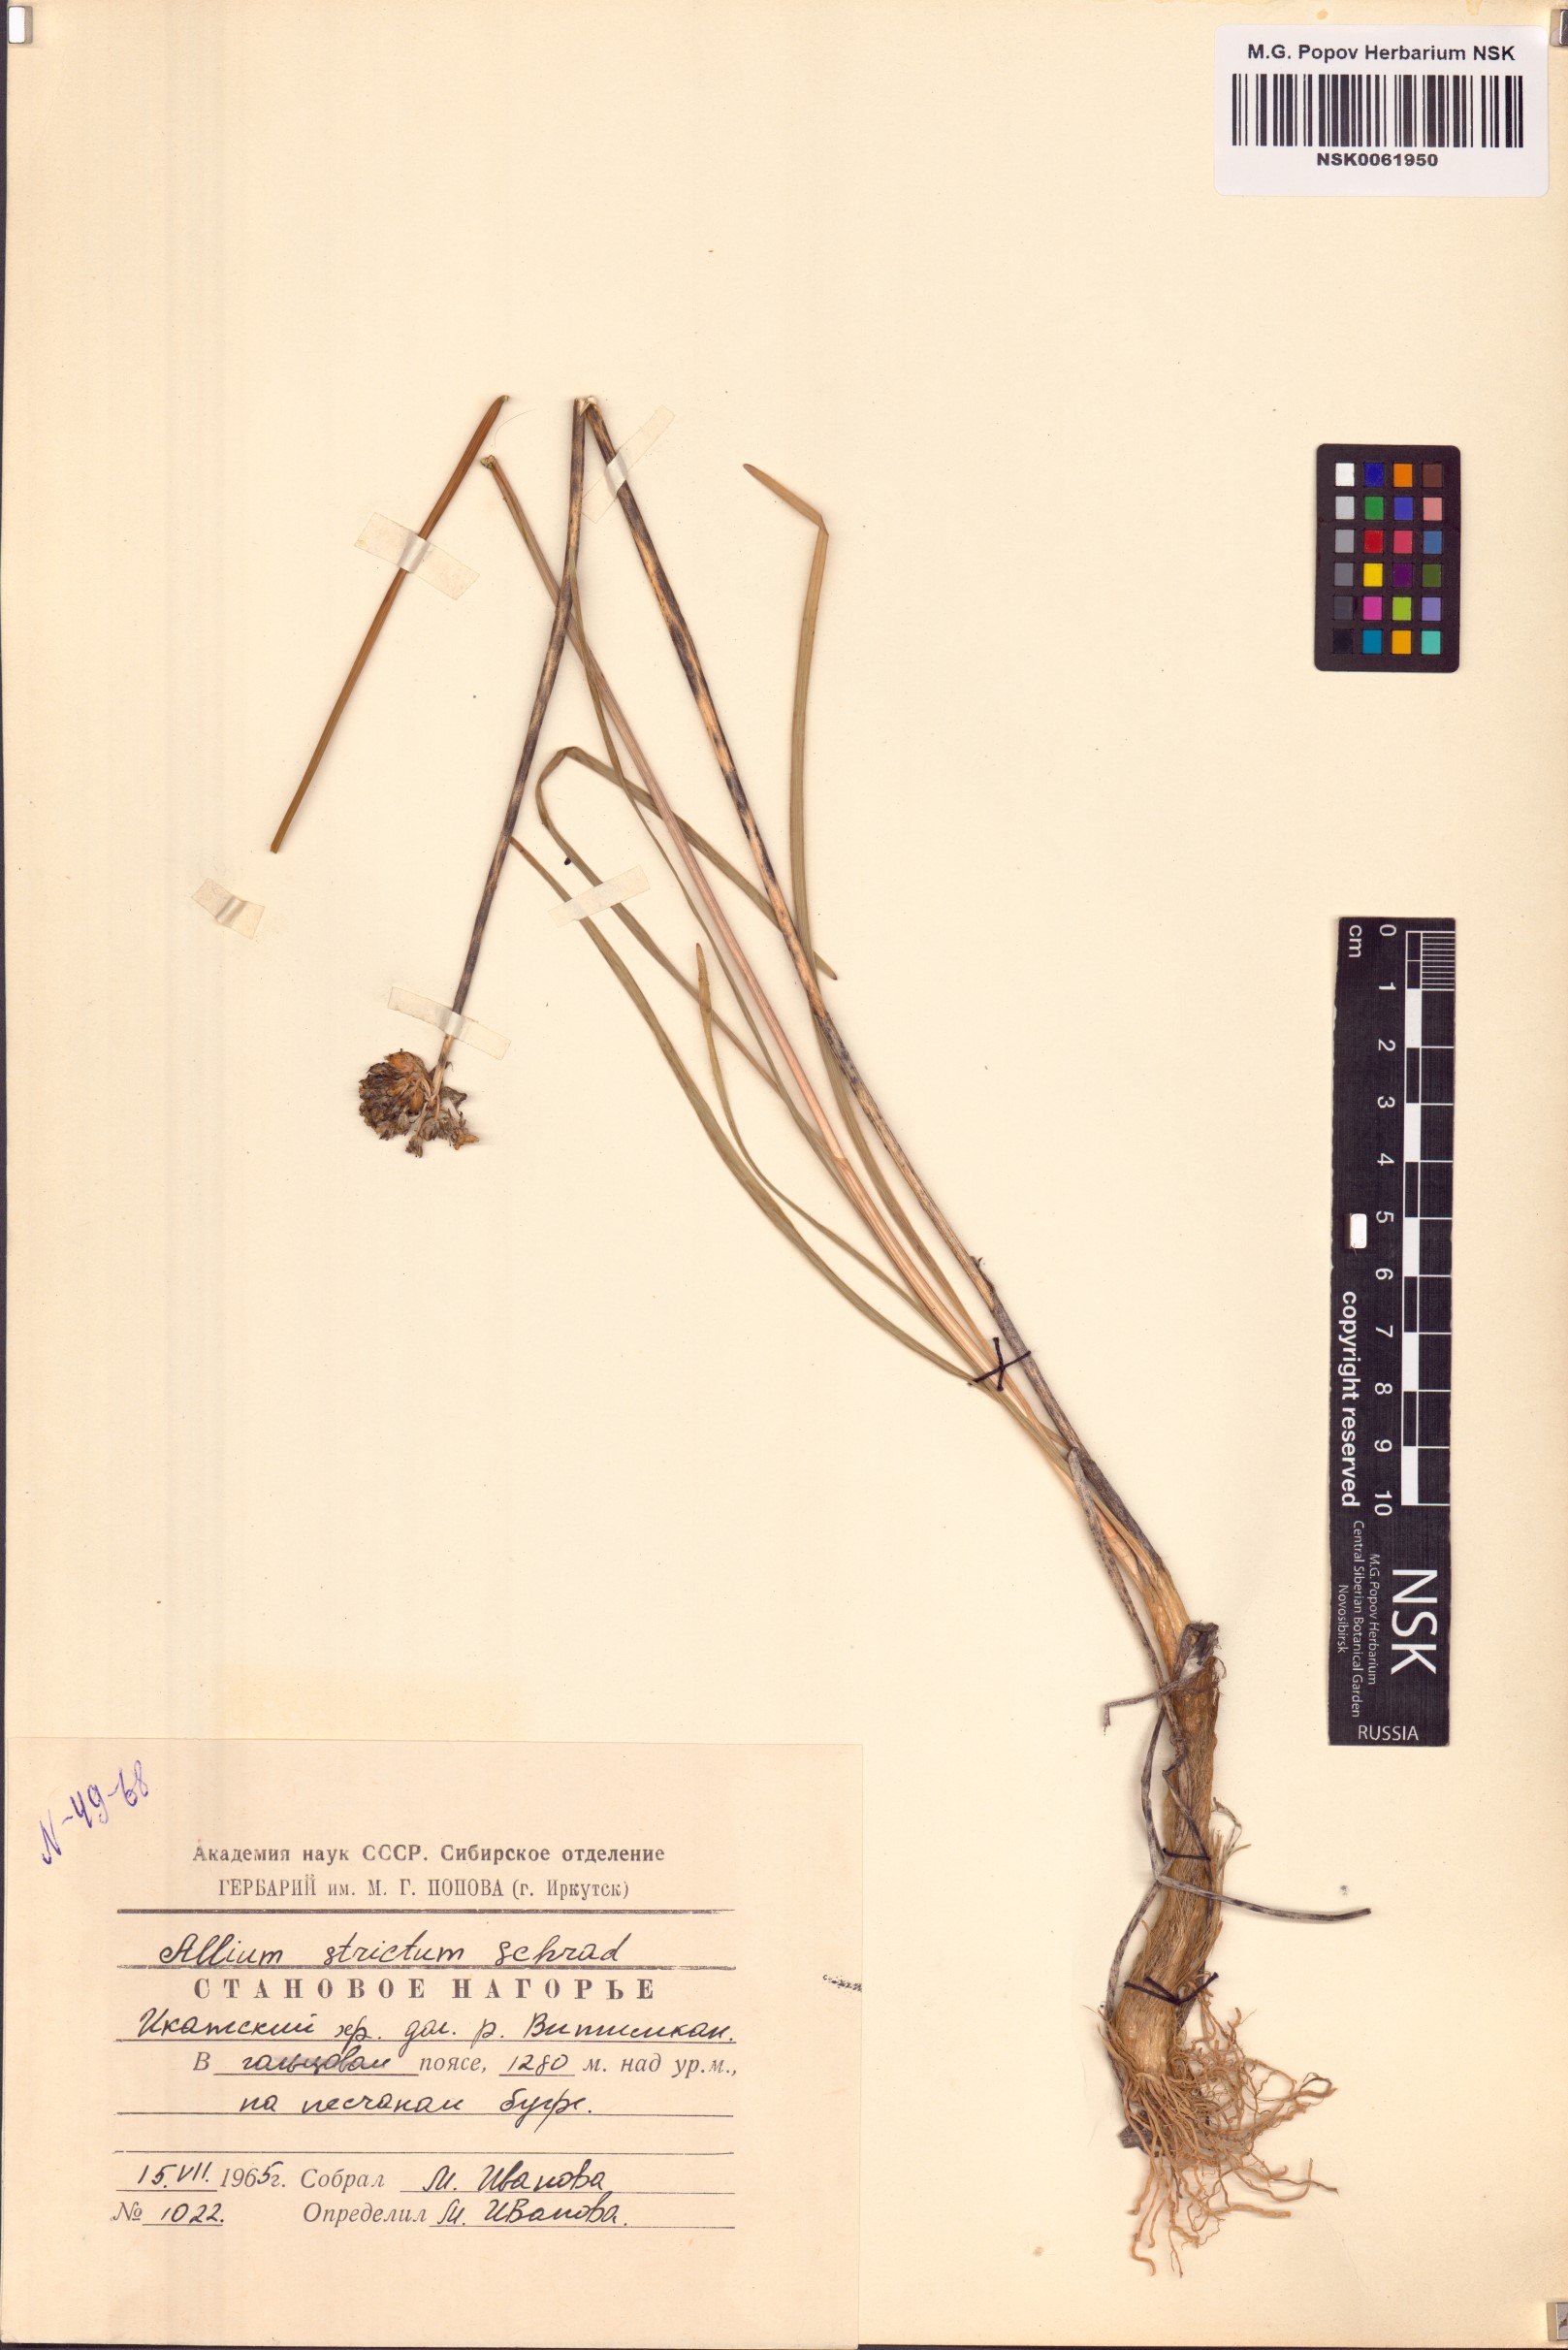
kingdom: Plantae
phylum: Tracheophyta
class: Liliopsida
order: Asparagales
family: Amaryllidaceae
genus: Allium
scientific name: Allium strictum
